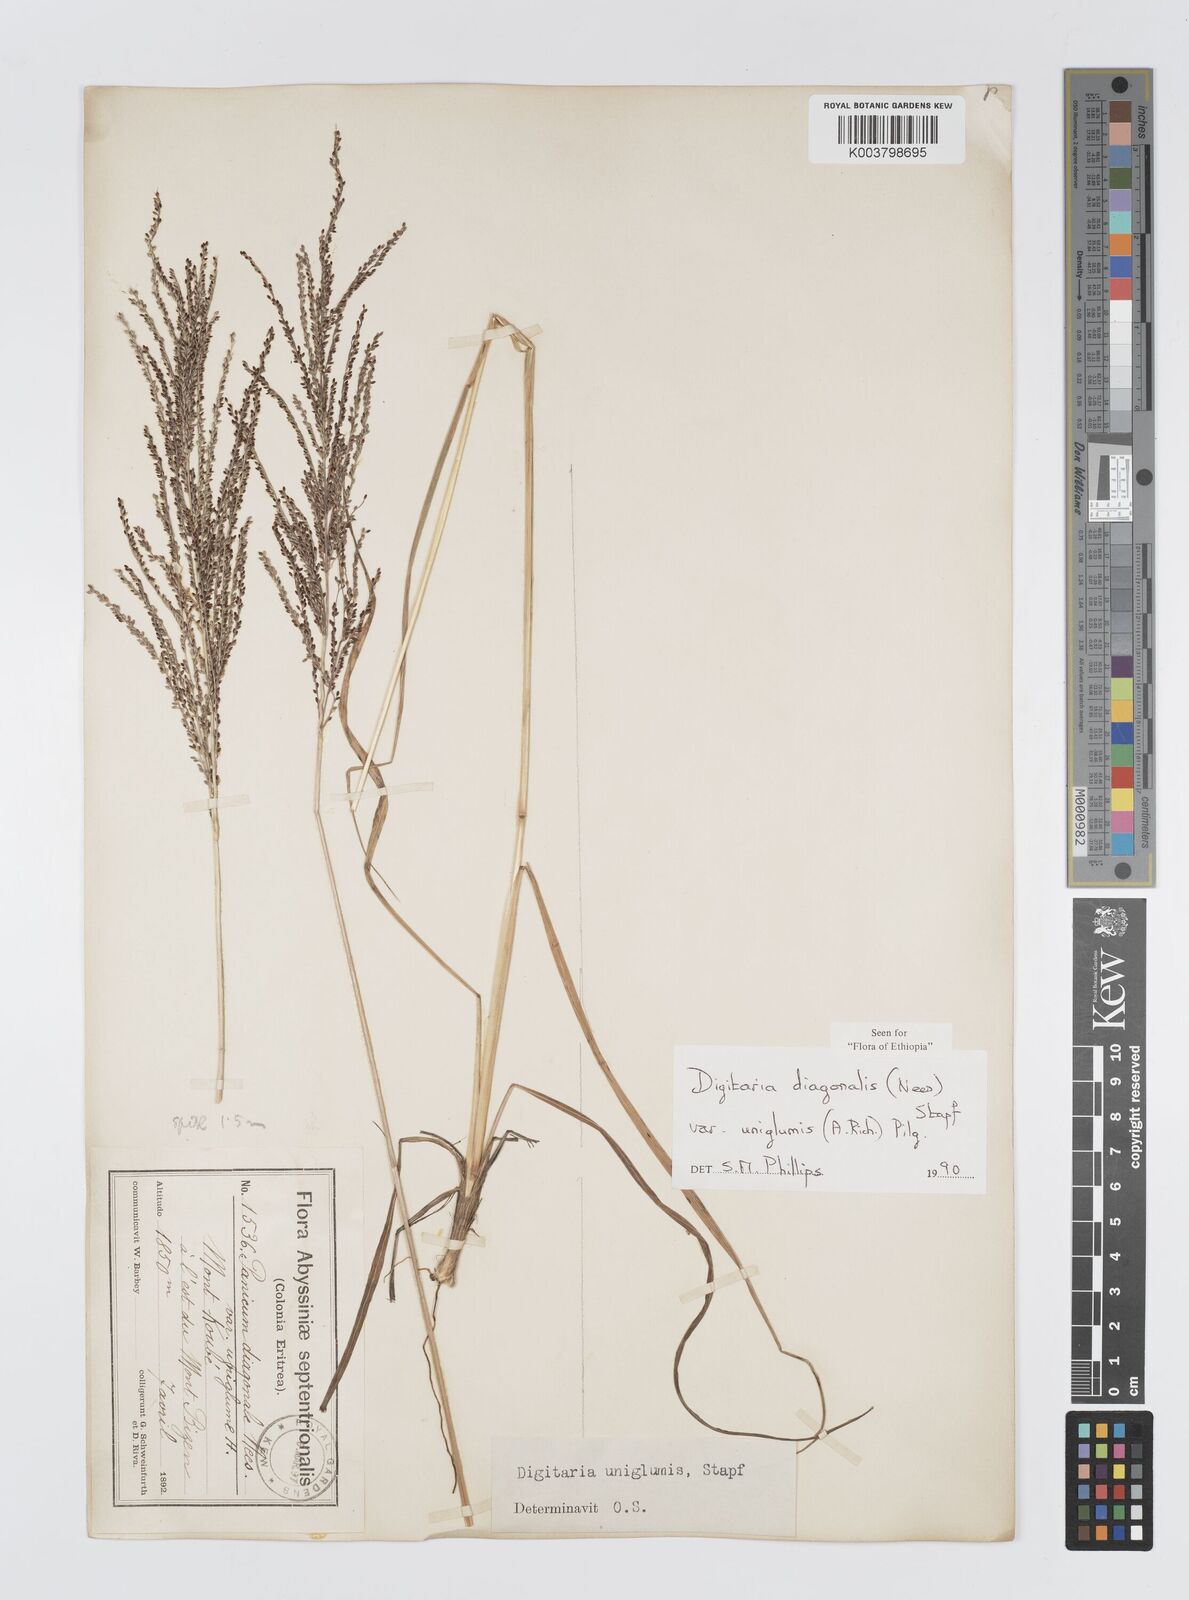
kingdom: Plantae
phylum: Tracheophyta
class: Liliopsida
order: Poales
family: Poaceae
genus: Digitaria
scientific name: Digitaria diagonalis
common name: Brown-seed finger grass
